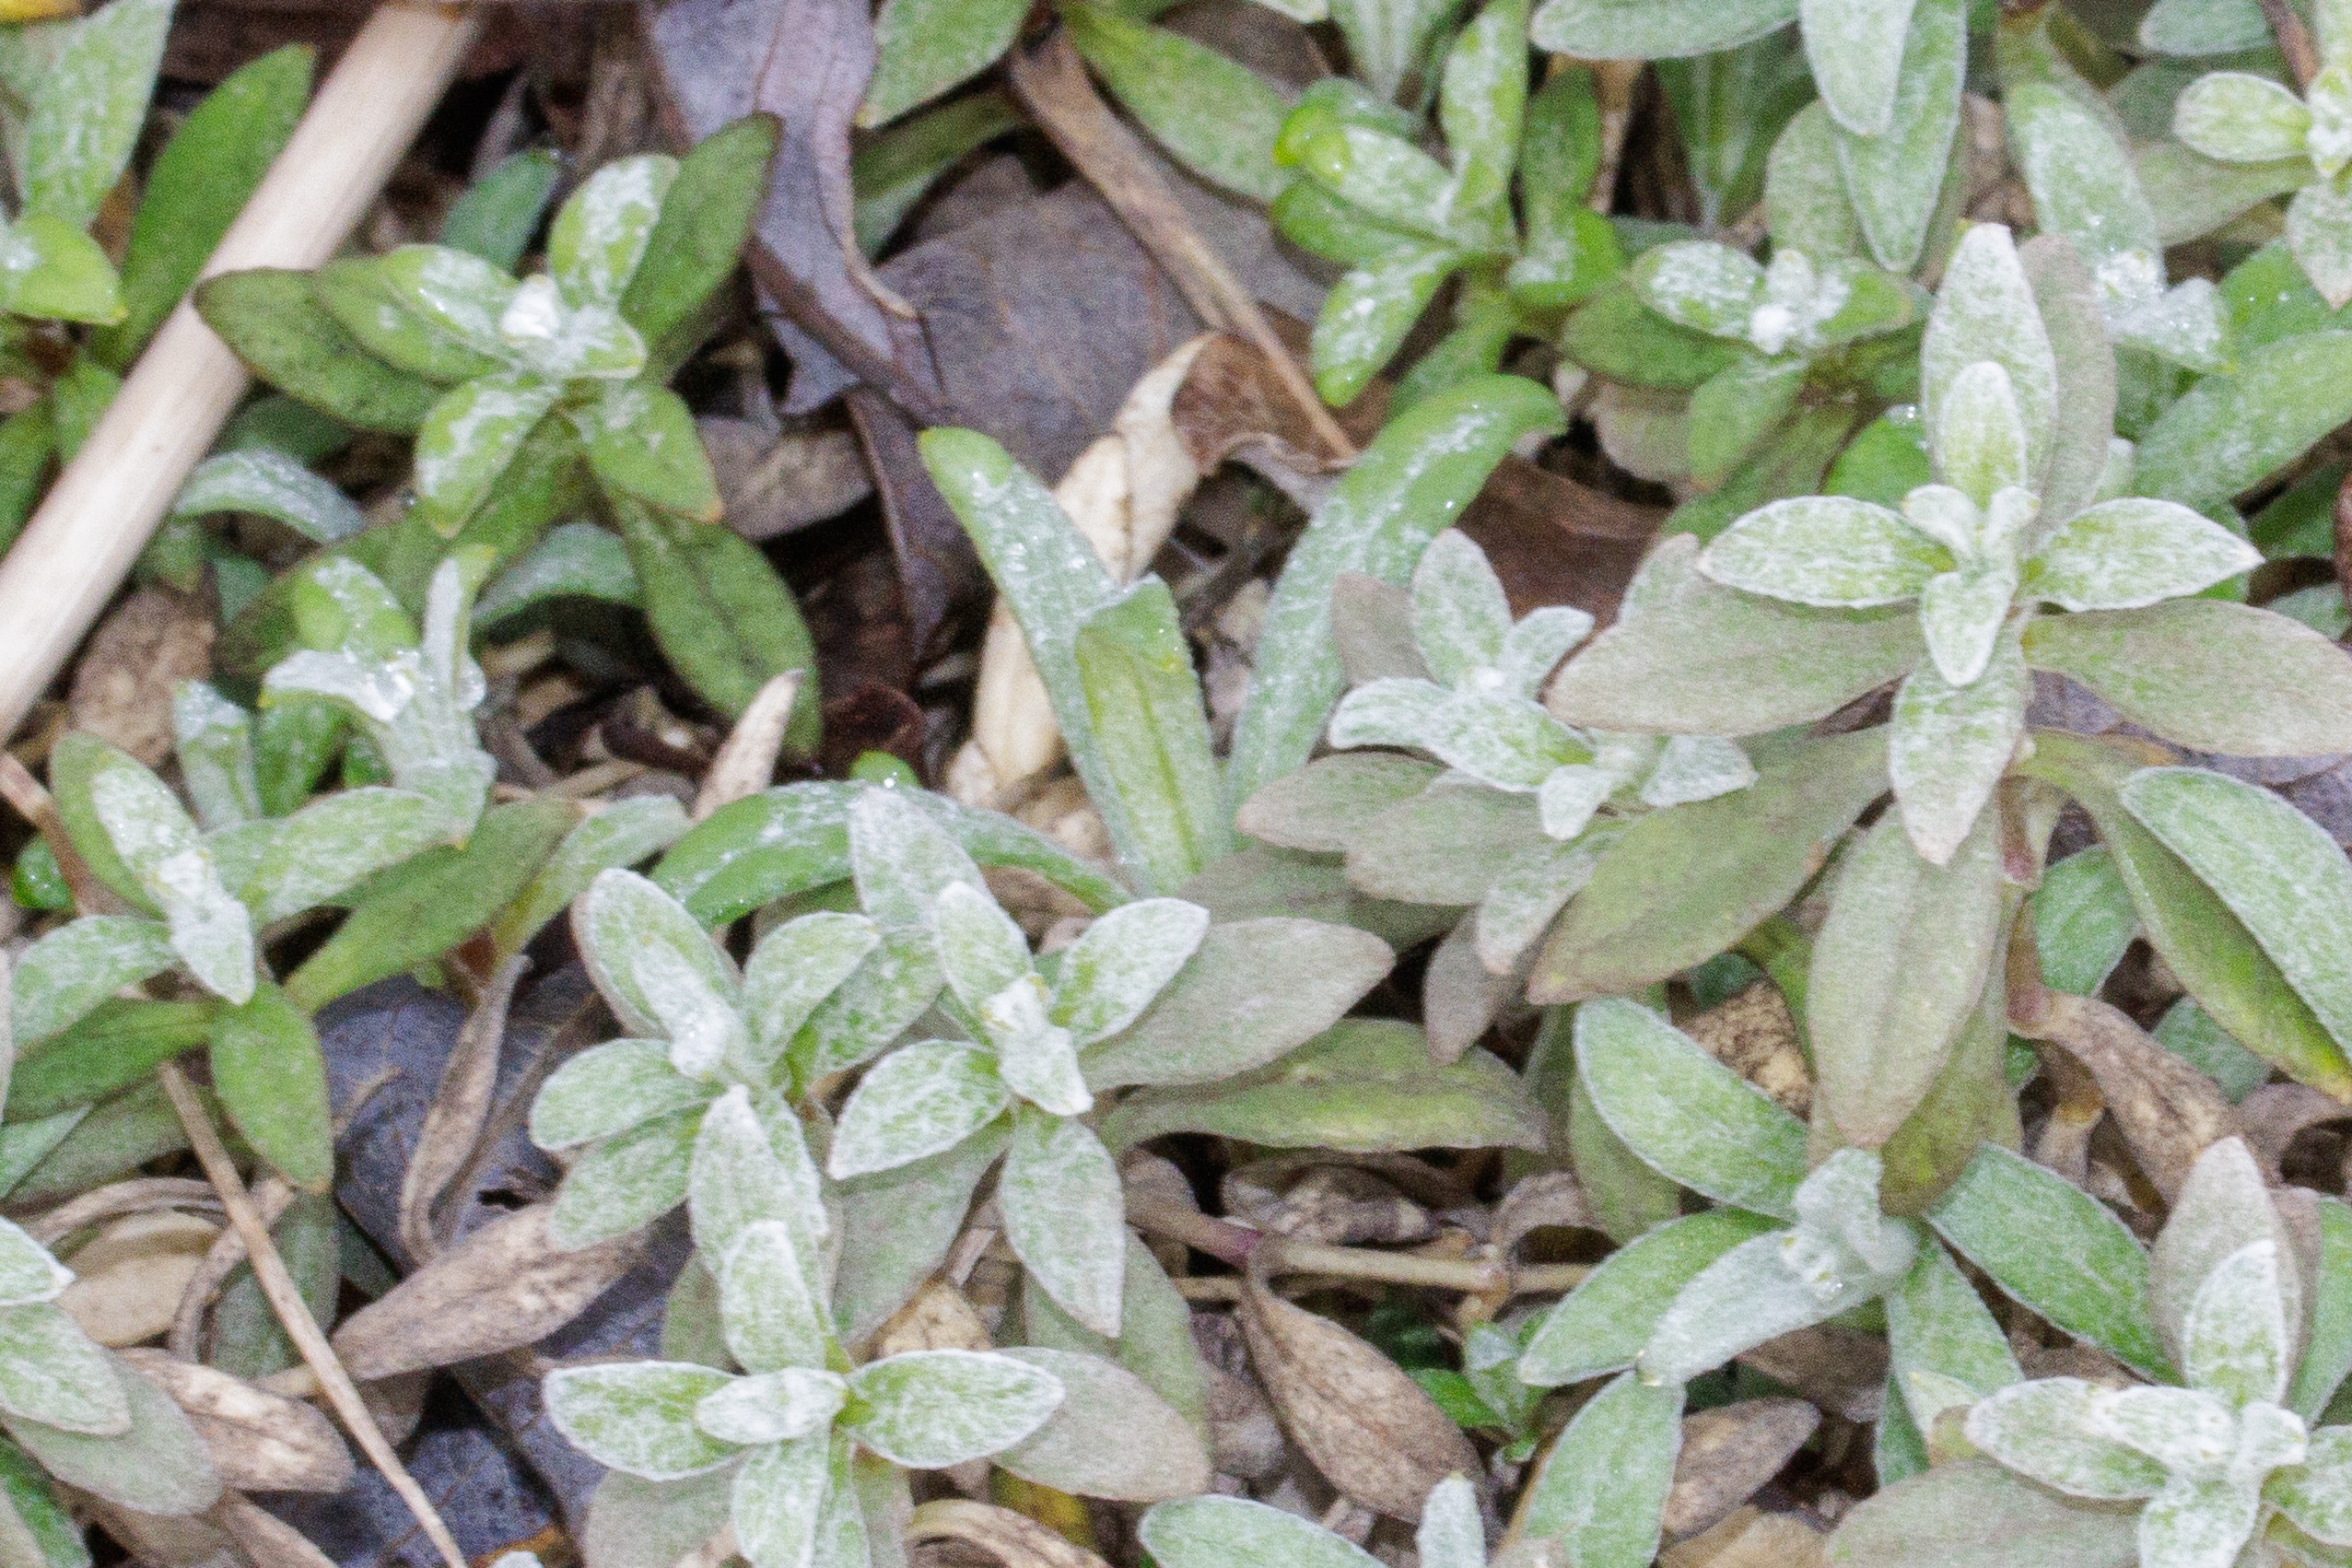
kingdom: Plantae
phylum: Tracheophyta
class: Magnoliopsida
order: Caryophyllales
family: Caryophyllaceae
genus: Cerastium
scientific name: Cerastium tomentosum
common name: Filtet hønsetarm
